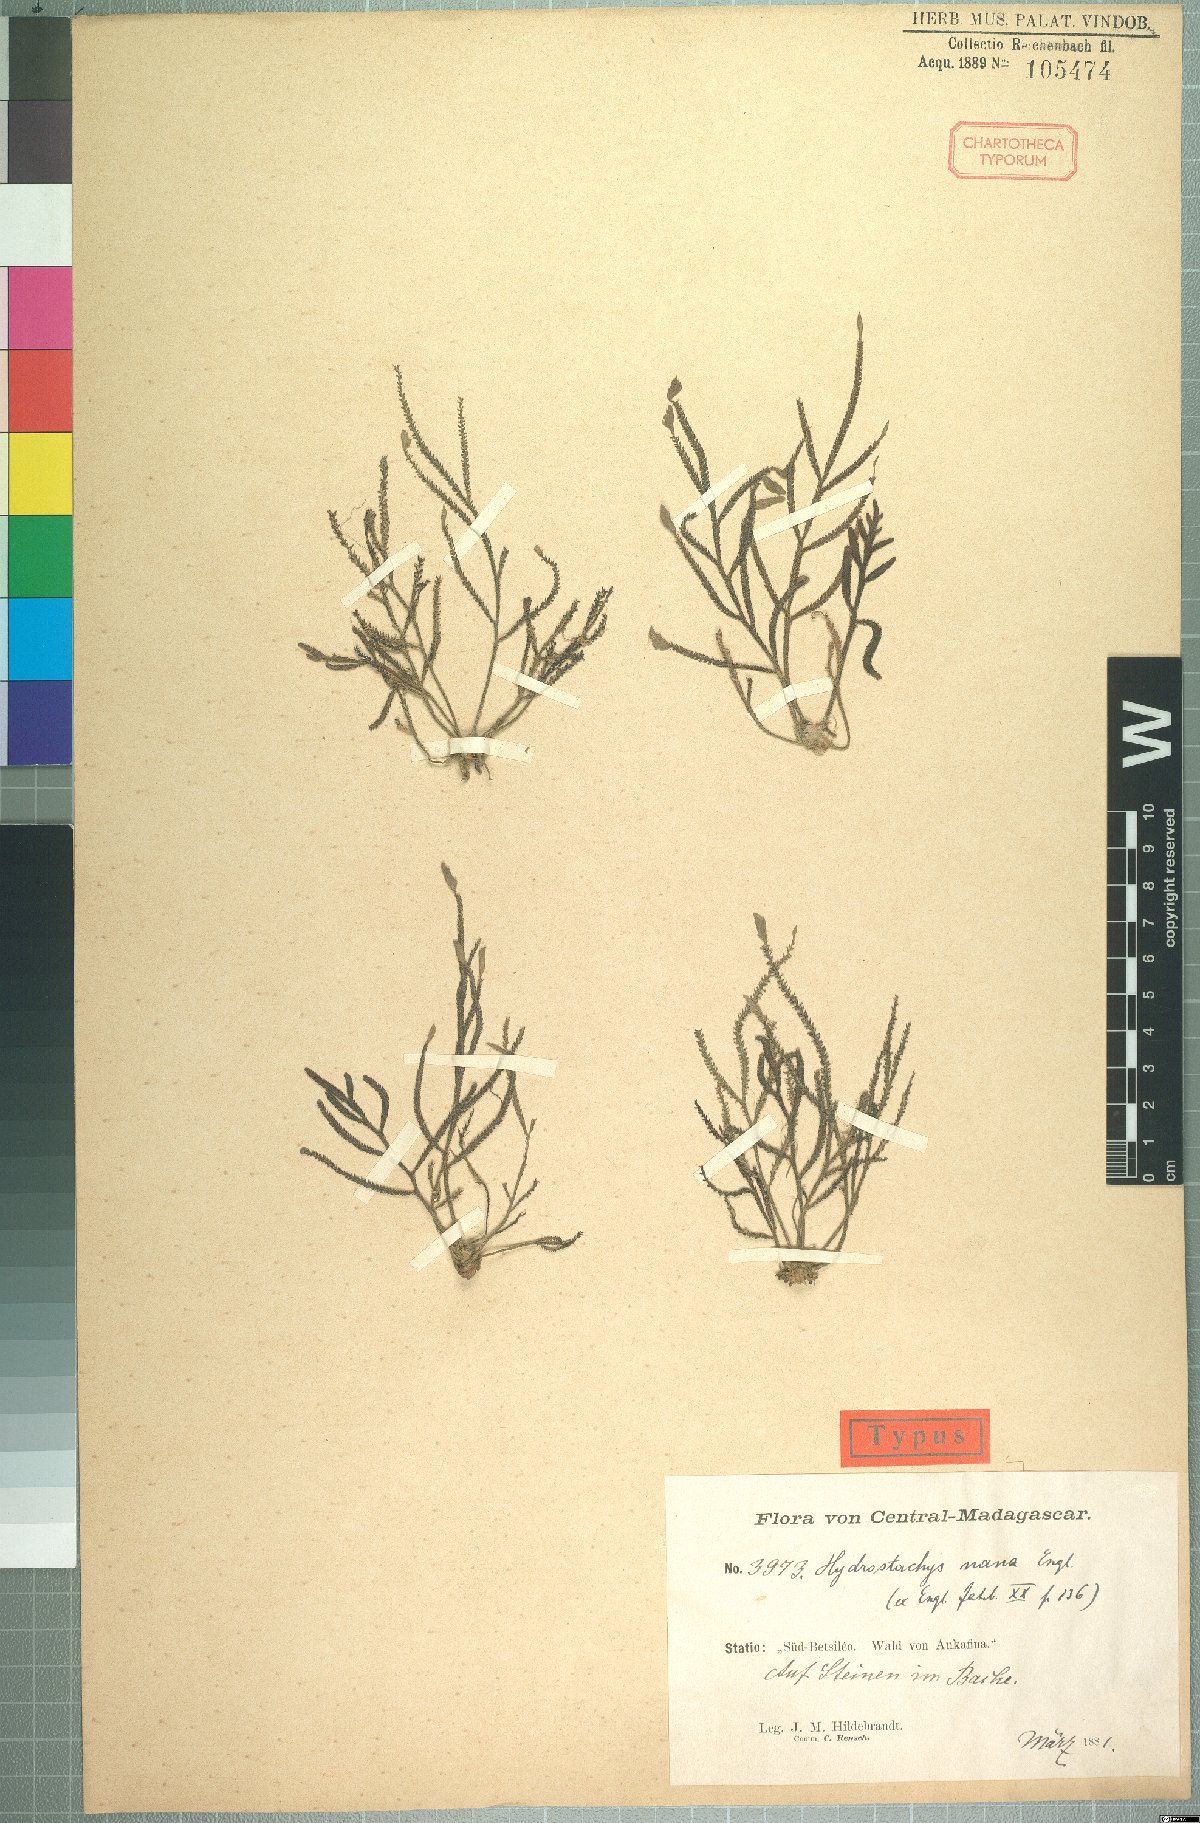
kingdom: Plantae
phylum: Tracheophyta
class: Magnoliopsida
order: Cornales
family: Hydrostachyaceae
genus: Hydrostachys
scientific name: Hydrostachys distichophylla
